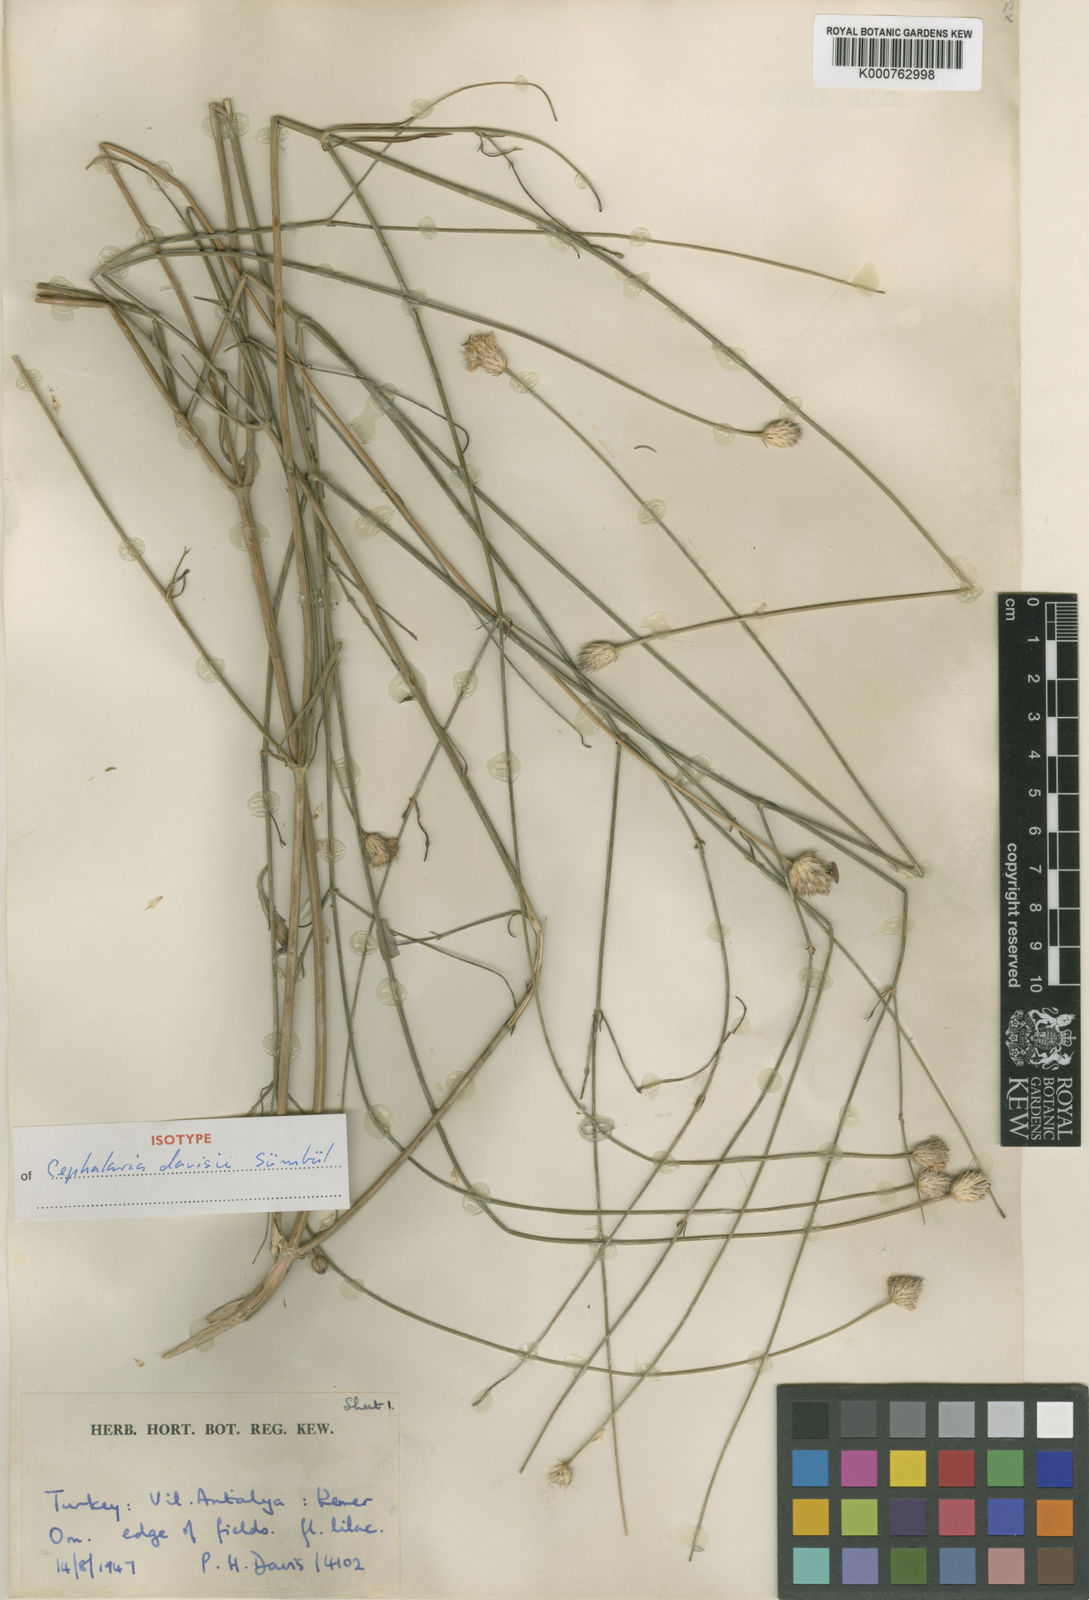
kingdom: Plantae
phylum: Tracheophyta
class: Magnoliopsida
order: Dipsacales
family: Caprifoliaceae
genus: Cephalaria
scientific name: Cephalaria
